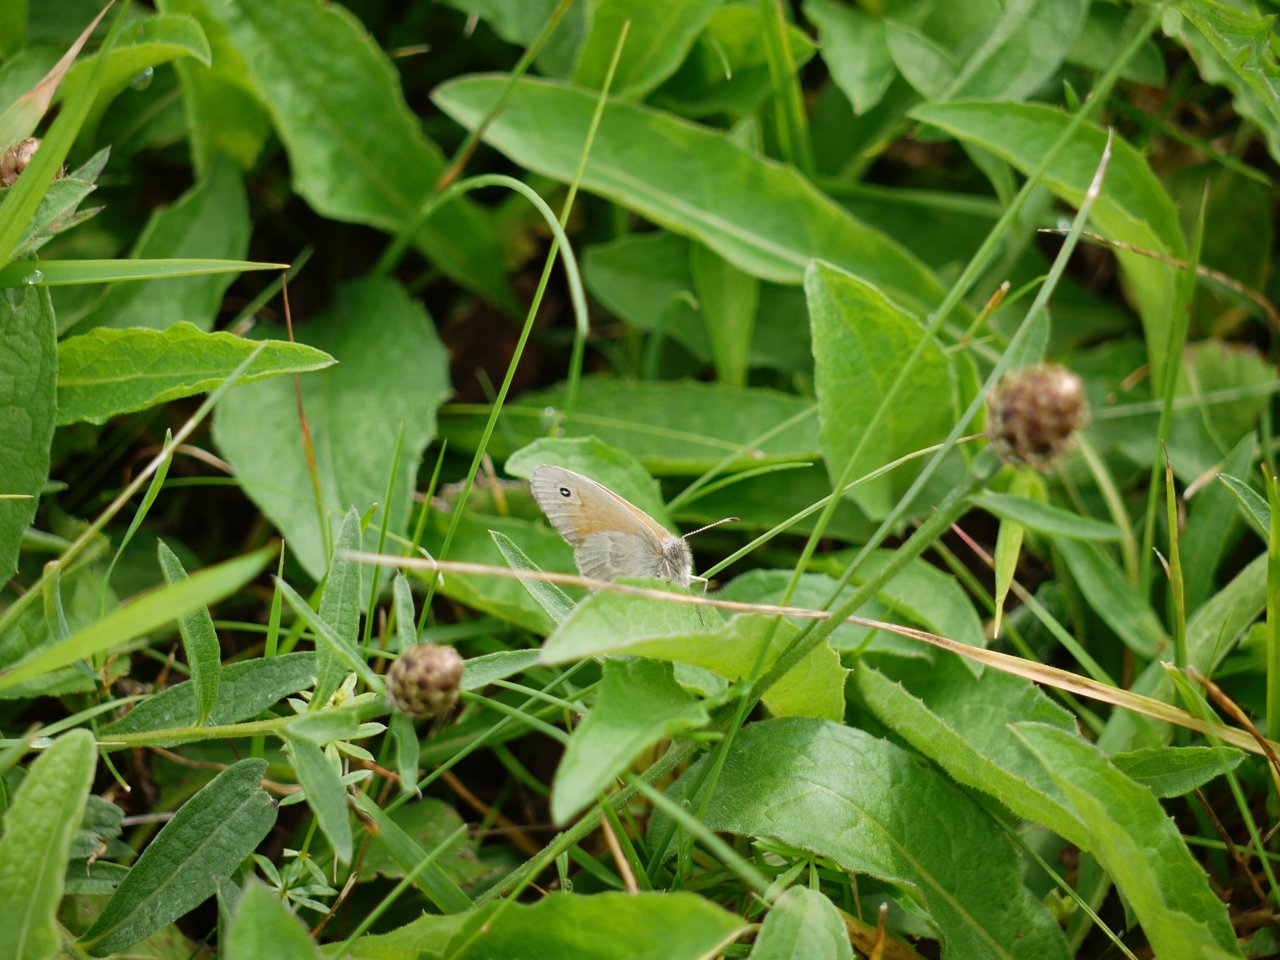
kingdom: Animalia
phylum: Arthropoda
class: Insecta
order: Lepidoptera
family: Nymphalidae
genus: Coenonympha
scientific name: Coenonympha tullia
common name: Large Heath
